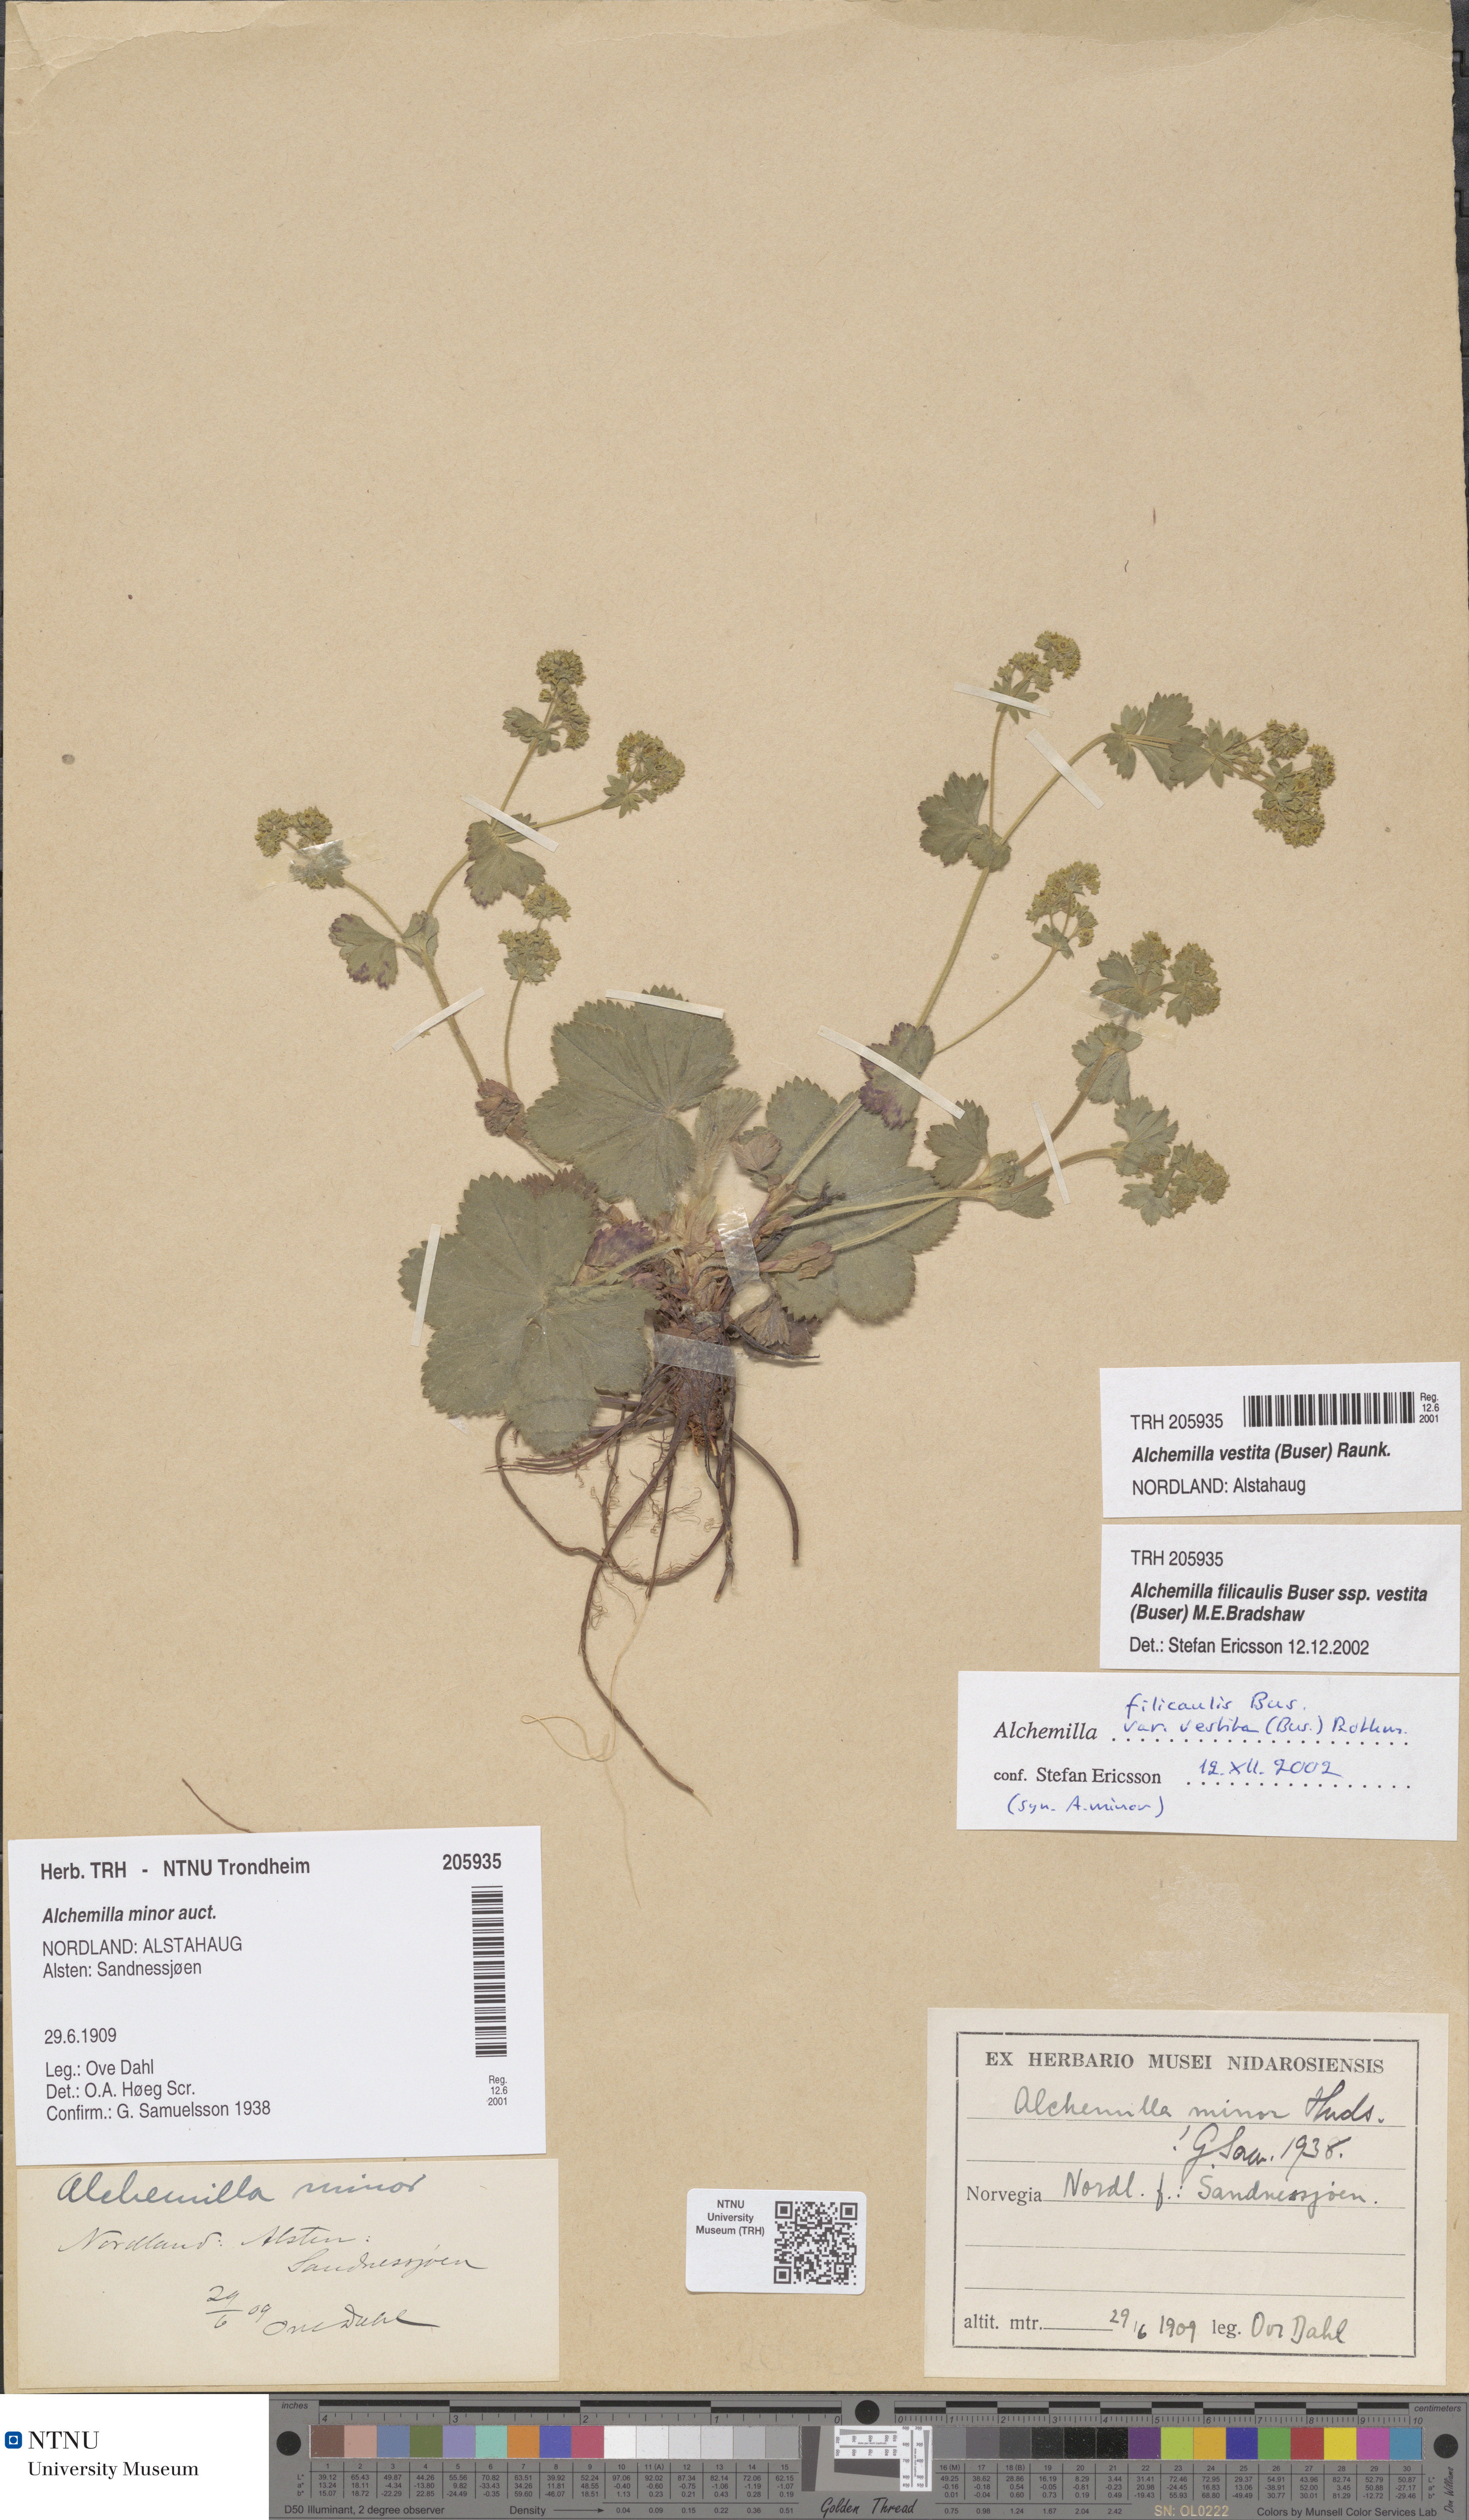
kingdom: Plantae
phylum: Tracheophyta
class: Magnoliopsida
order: Rosales
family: Rosaceae
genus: Alchemilla
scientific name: Alchemilla filicaulis
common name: Hairy lady's-mantle
